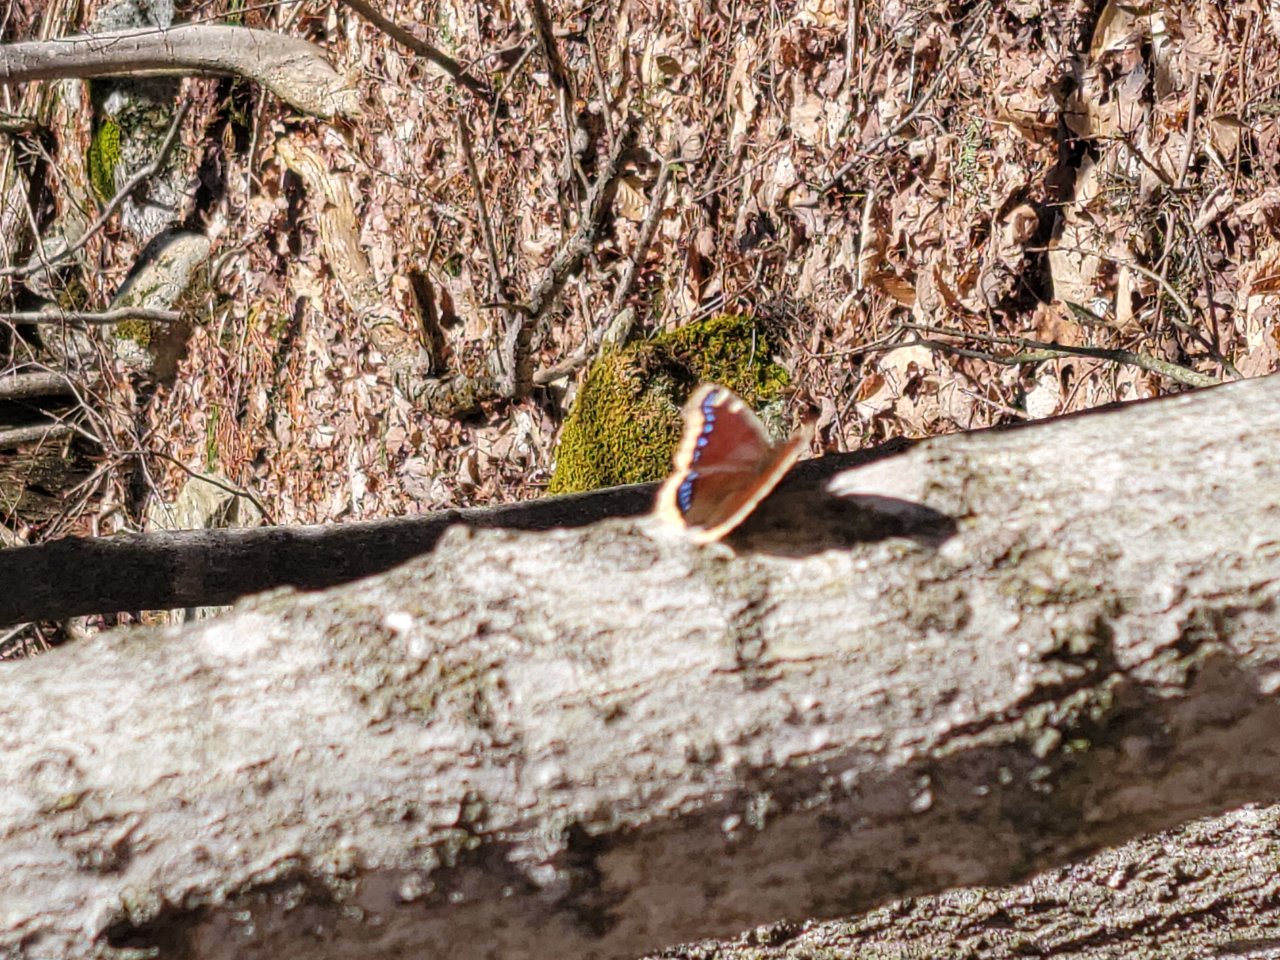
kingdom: Animalia
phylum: Arthropoda
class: Insecta
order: Lepidoptera
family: Nymphalidae
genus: Nymphalis
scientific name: Nymphalis antiopa
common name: Mourning Cloak
